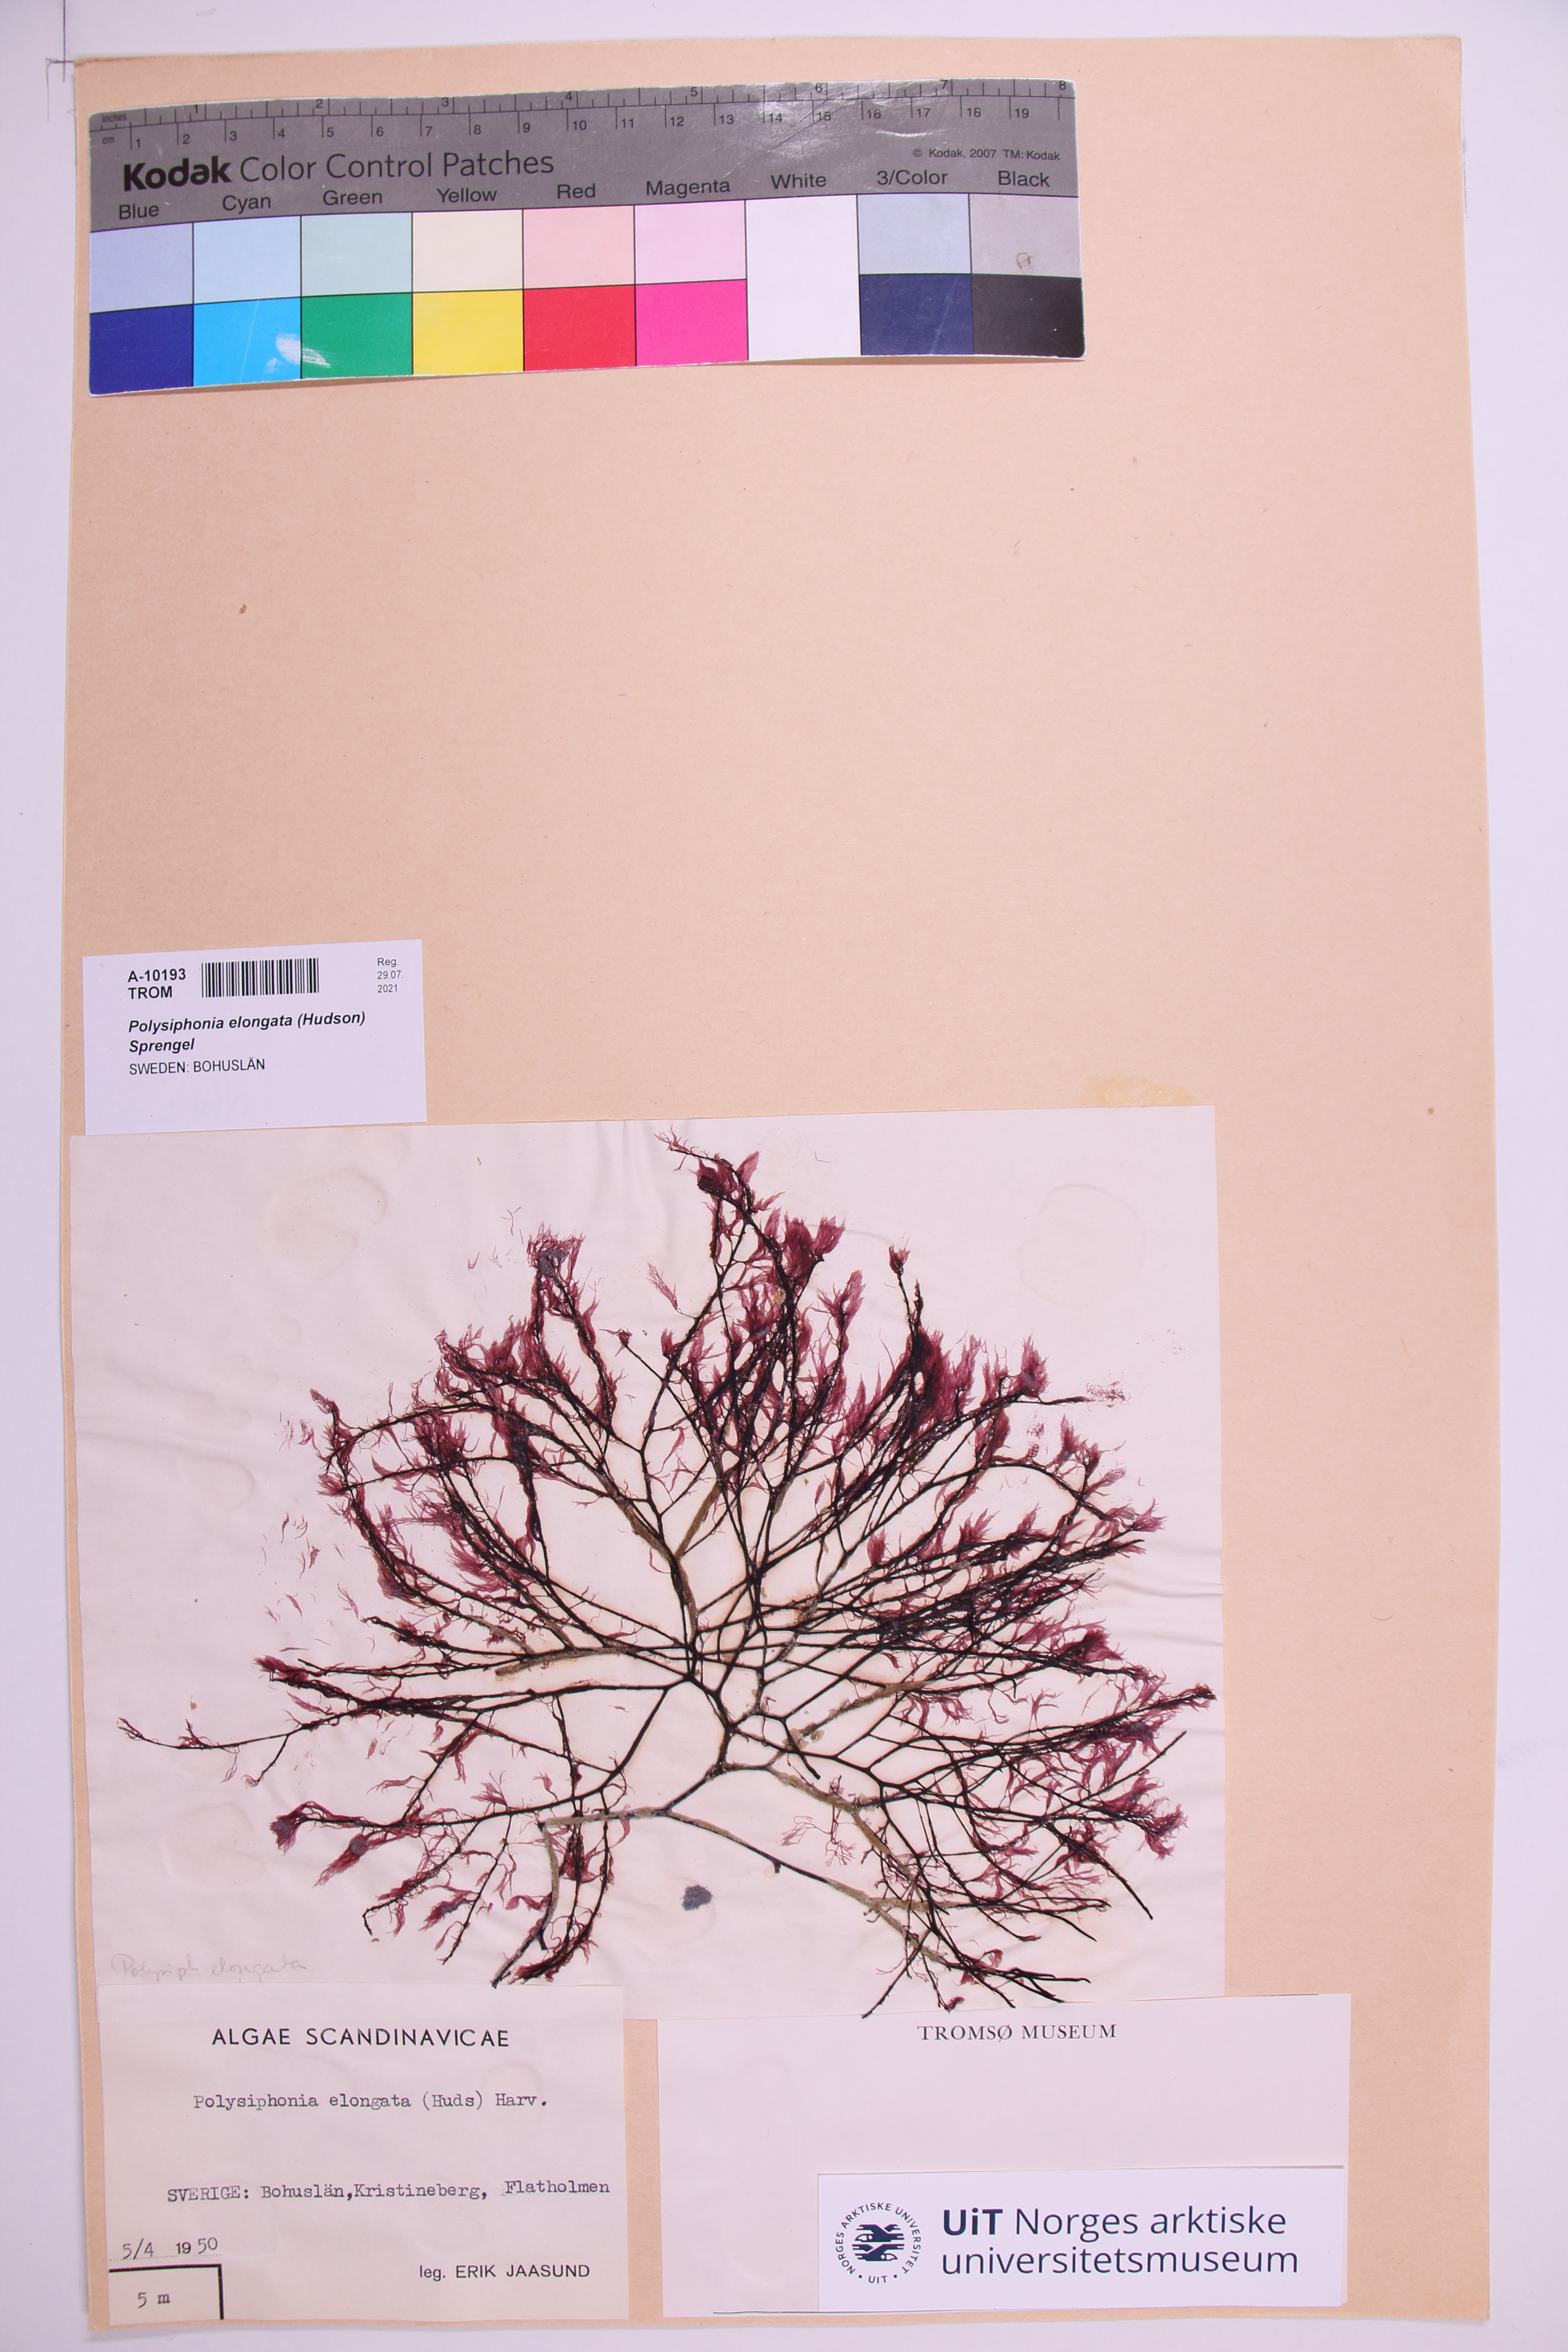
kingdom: Plantae
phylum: Rhodophyta
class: Florideophyceae
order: Ceramiales
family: Rhodomelaceae
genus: Vertebrata
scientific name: Vertebrata spec
